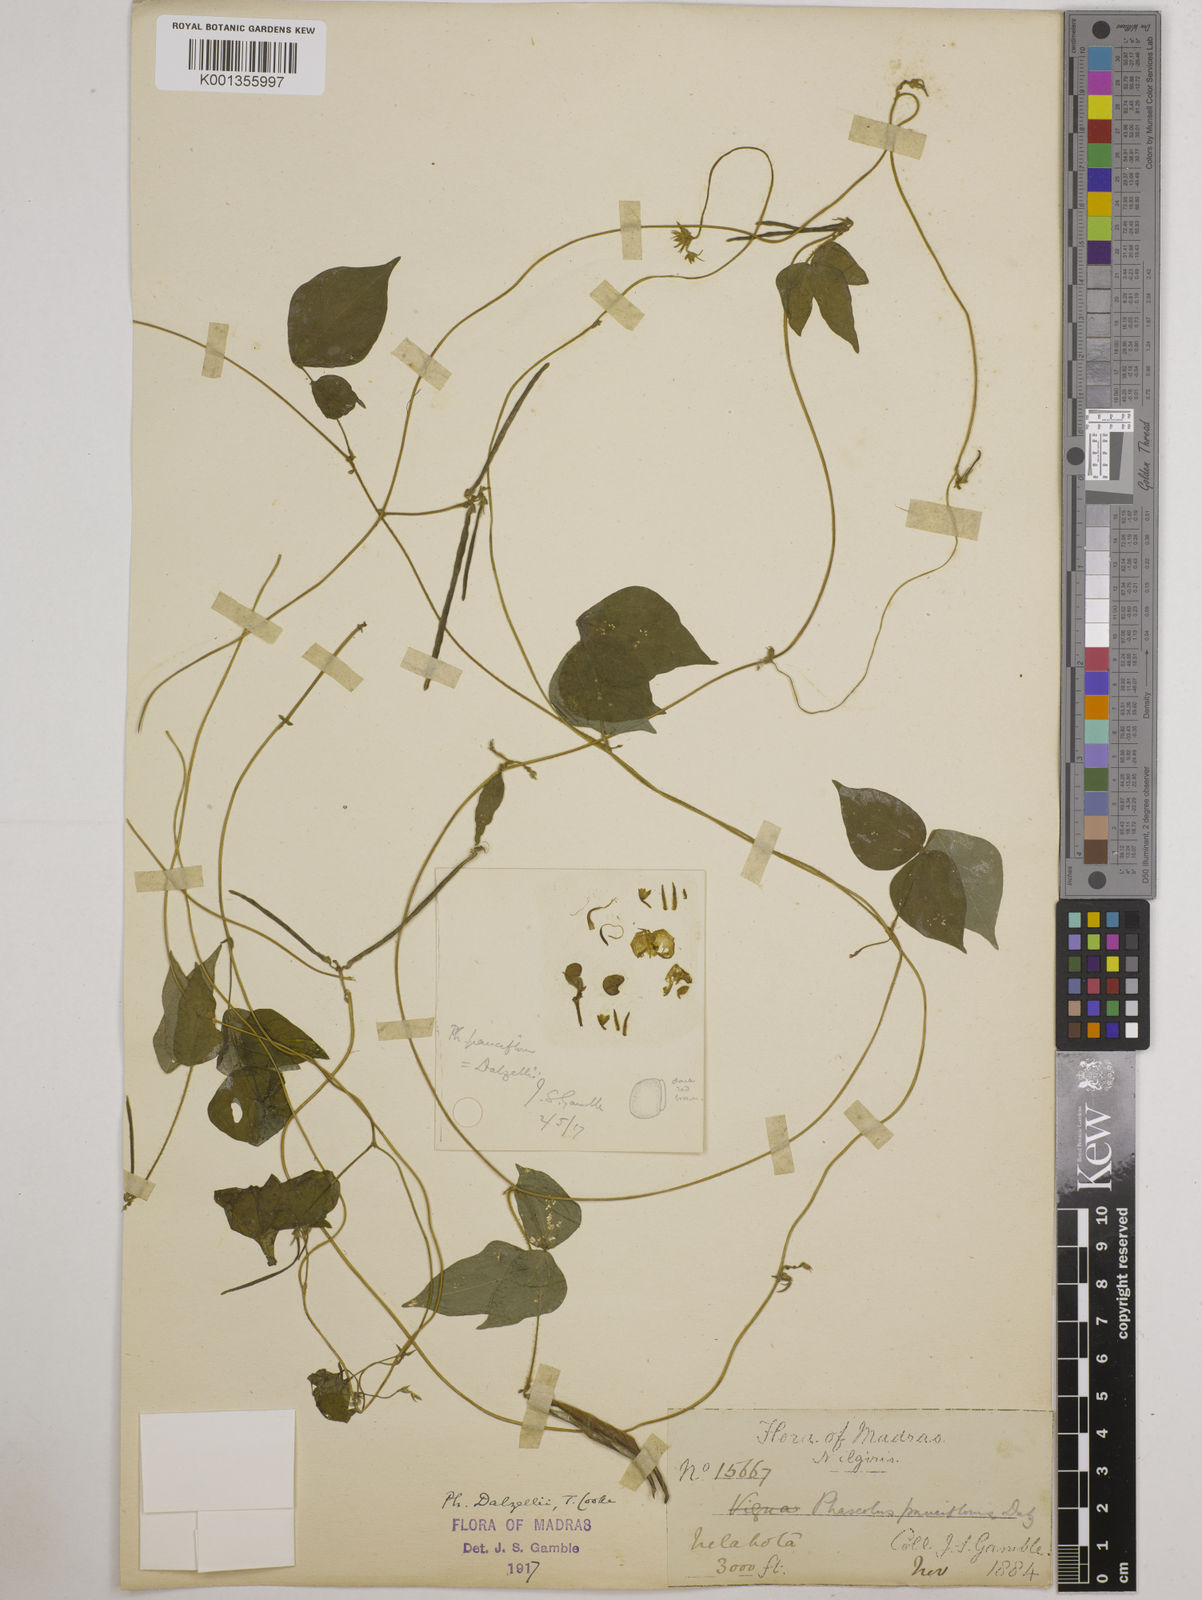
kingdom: Plantae
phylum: Tracheophyta
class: Magnoliopsida
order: Fabales
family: Fabaceae
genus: Vigna
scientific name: Vigna dalzelliana
